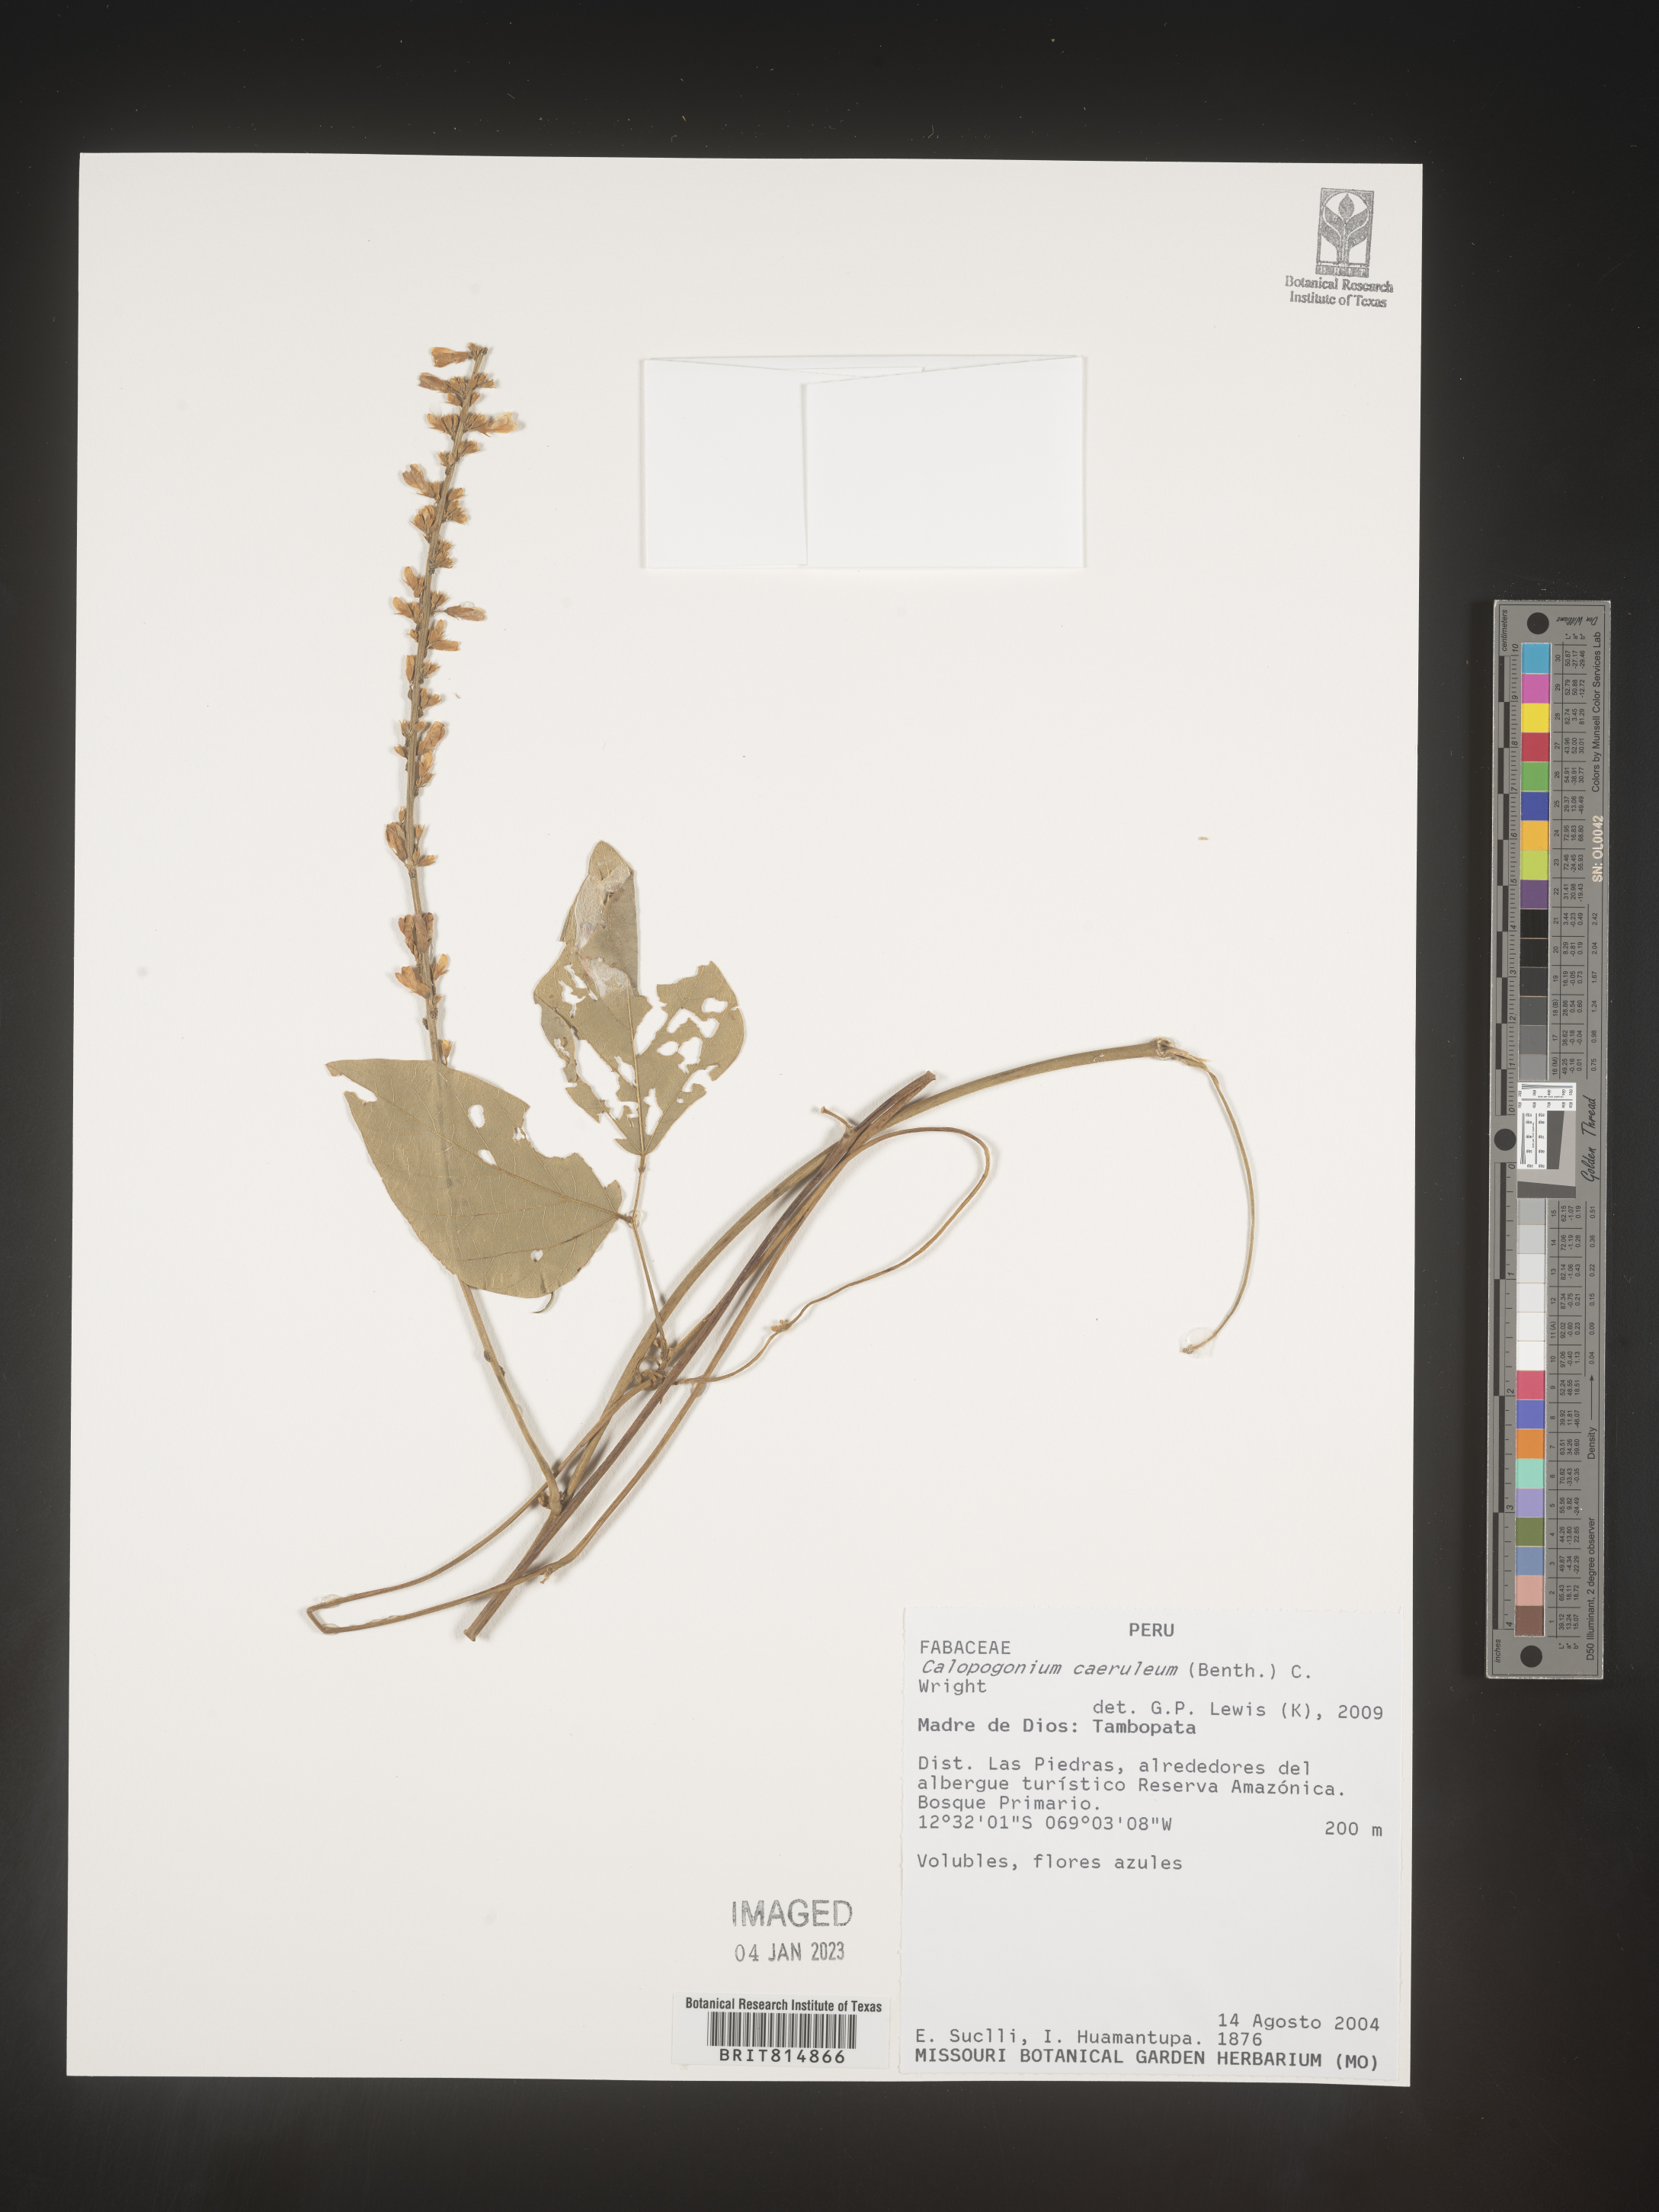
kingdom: Plantae
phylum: Tracheophyta
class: Magnoliopsida
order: Fabales
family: Fabaceae
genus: Calopogonium
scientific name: Calopogonium
